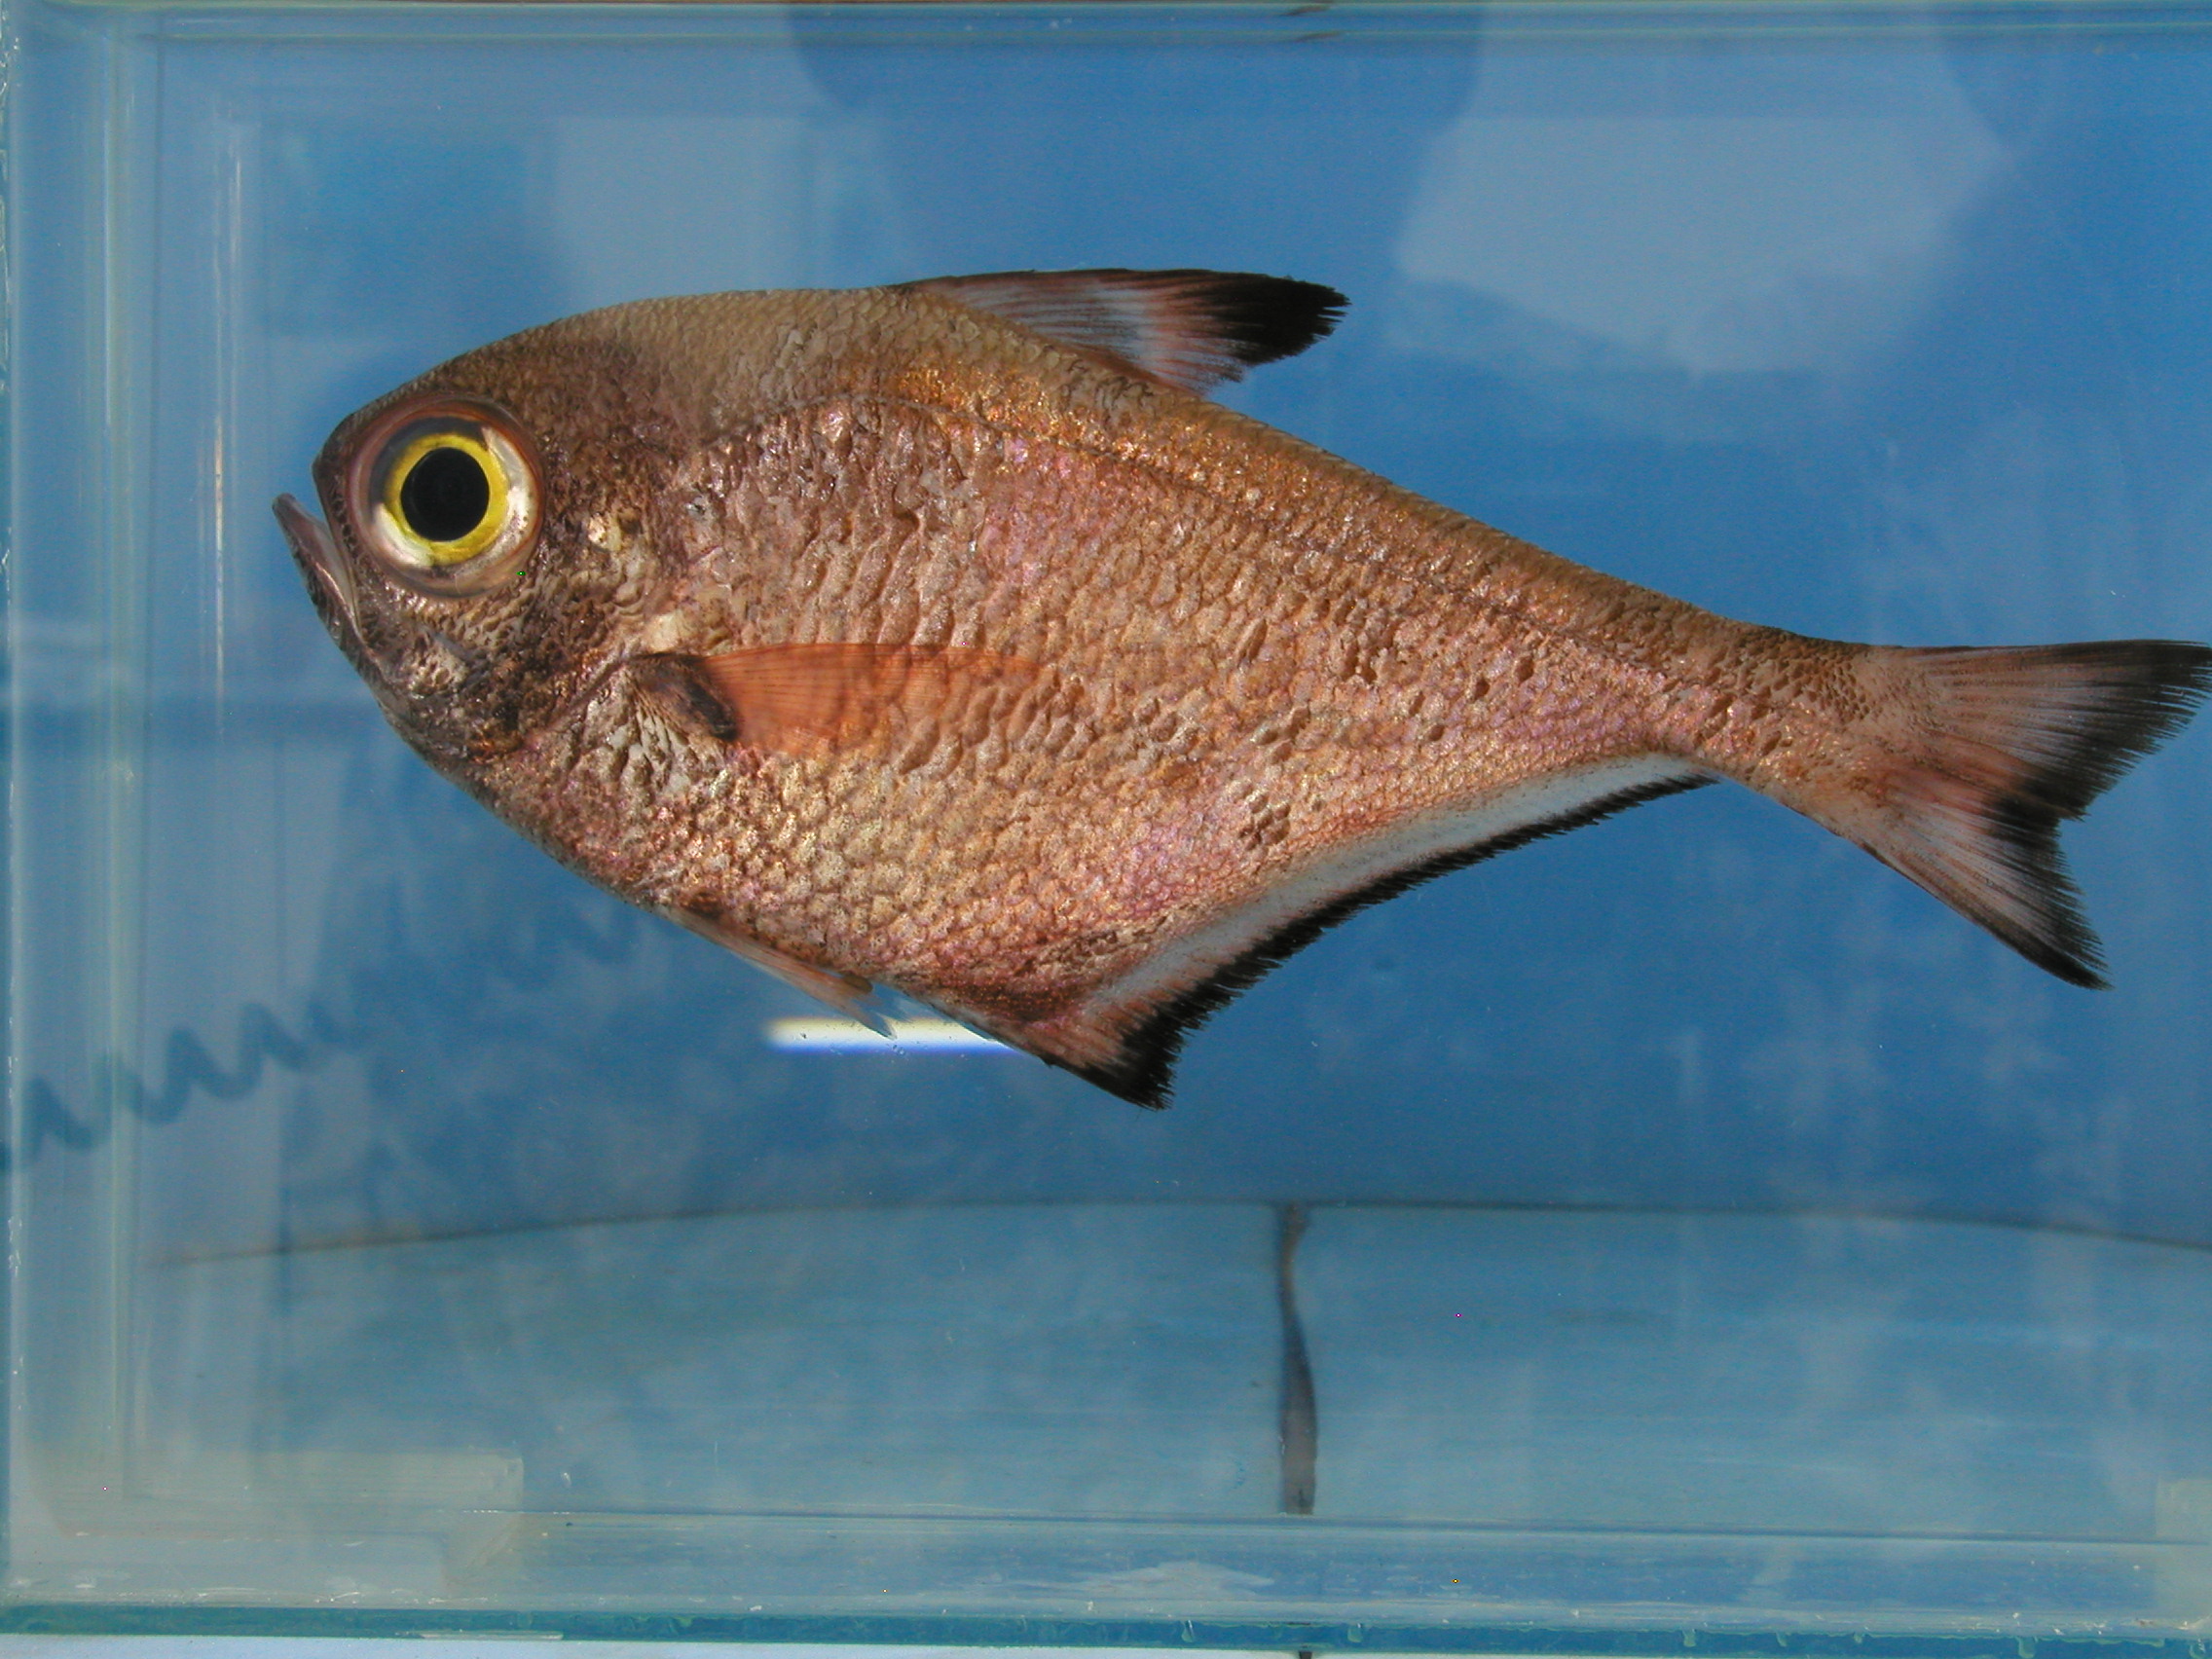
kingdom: Animalia
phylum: Chordata
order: Perciformes
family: Pempheridae
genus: Pempheris
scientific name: Pempheris vanicolensis
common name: Vanikoro sweeper
